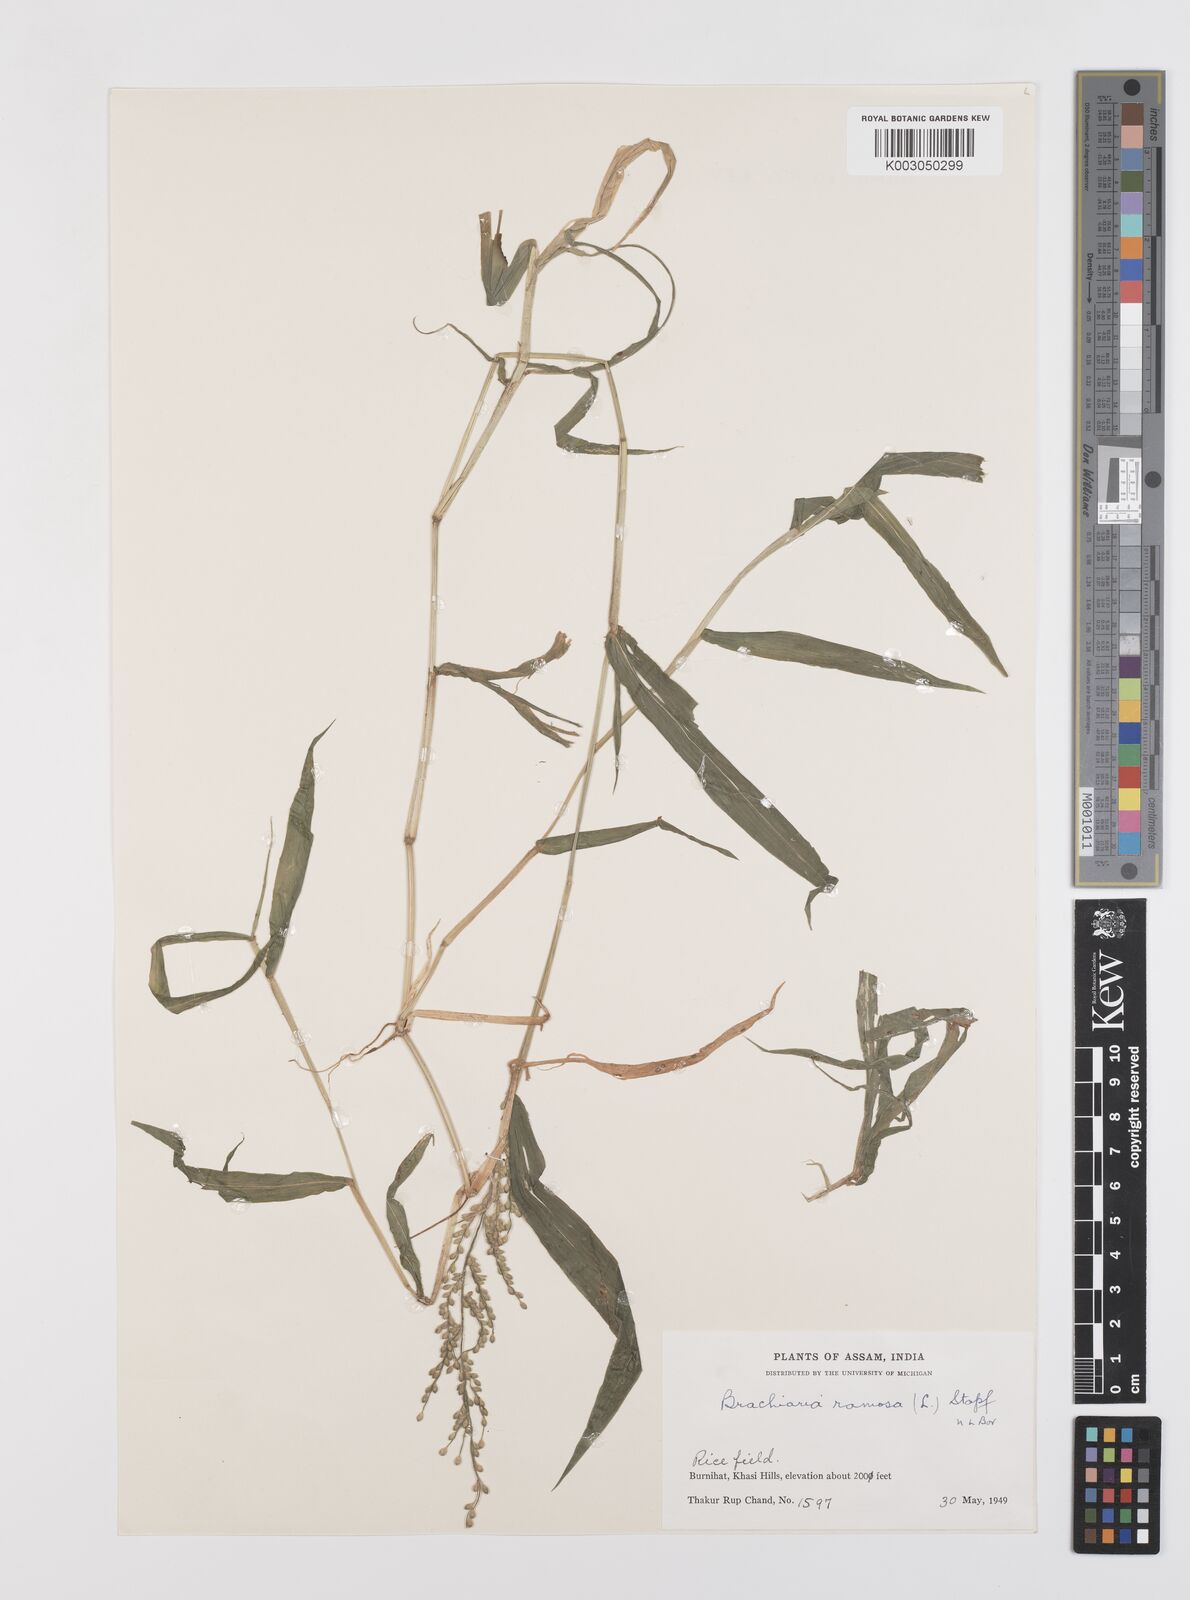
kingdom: Plantae
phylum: Tracheophyta
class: Liliopsida
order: Poales
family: Poaceae
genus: Urochloa
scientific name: Urochloa ramosa
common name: Browntop millet
